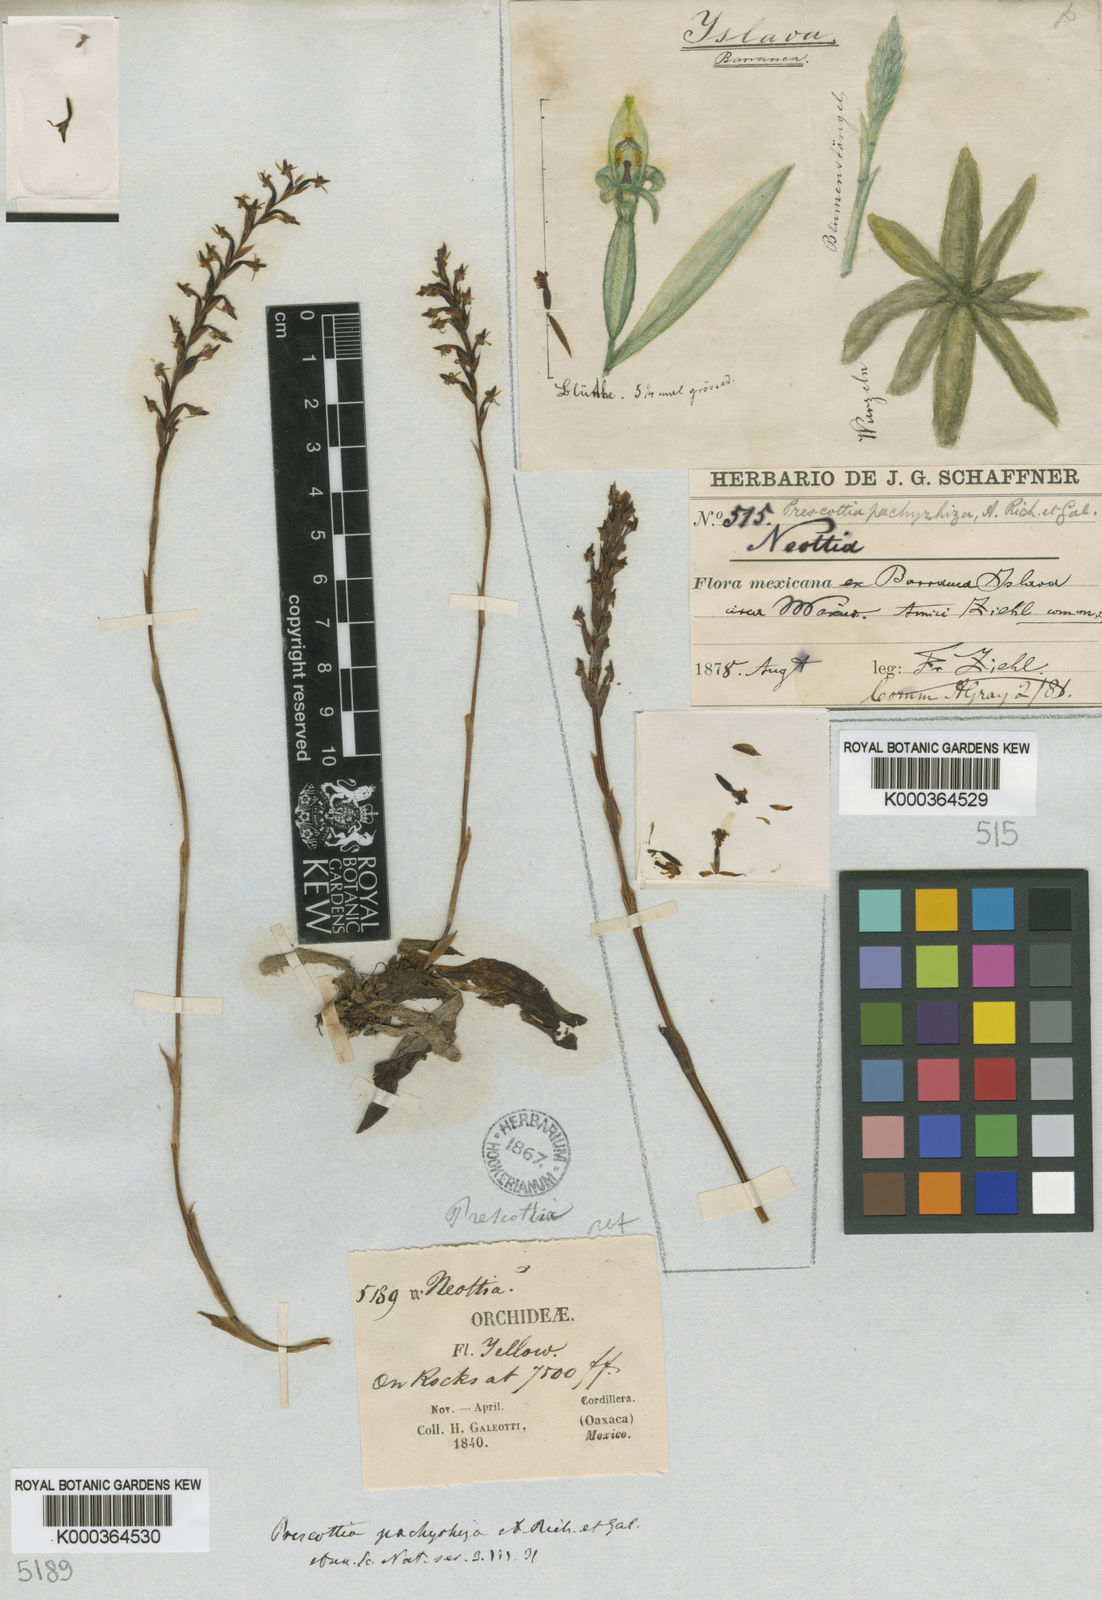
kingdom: Plantae
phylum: Tracheophyta
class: Liliopsida
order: Asparagales
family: Orchidaceae
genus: Galeoglossum
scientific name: Galeoglossum tubulosum
